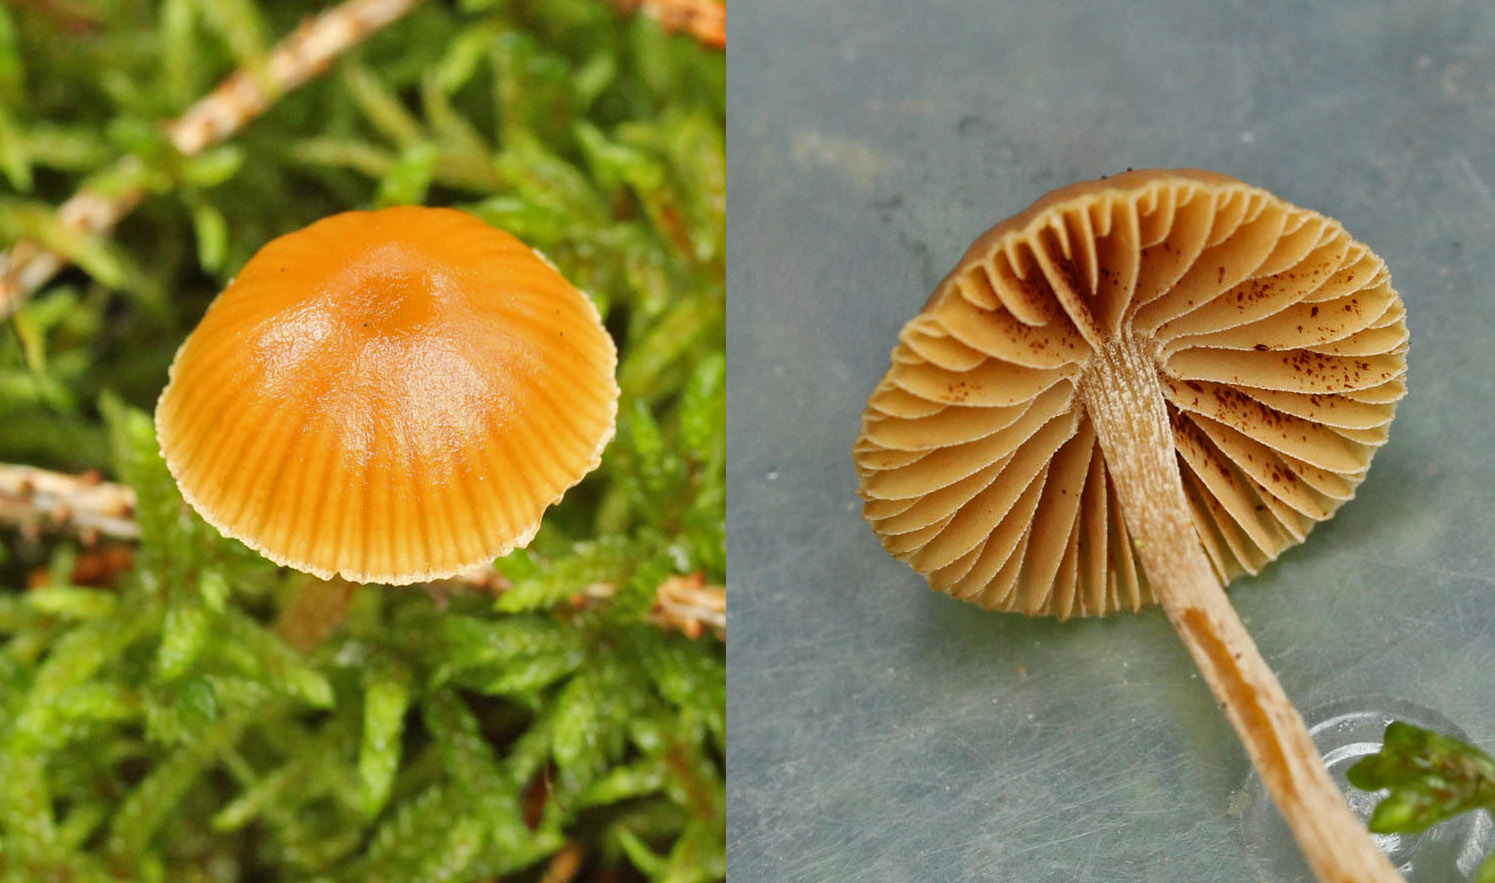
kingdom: Fungi
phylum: Basidiomycota
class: Agaricomycetes
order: Agaricales
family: Hymenogastraceae
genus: Galerina
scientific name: Galerina pumila
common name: honninggul hjelmhat
